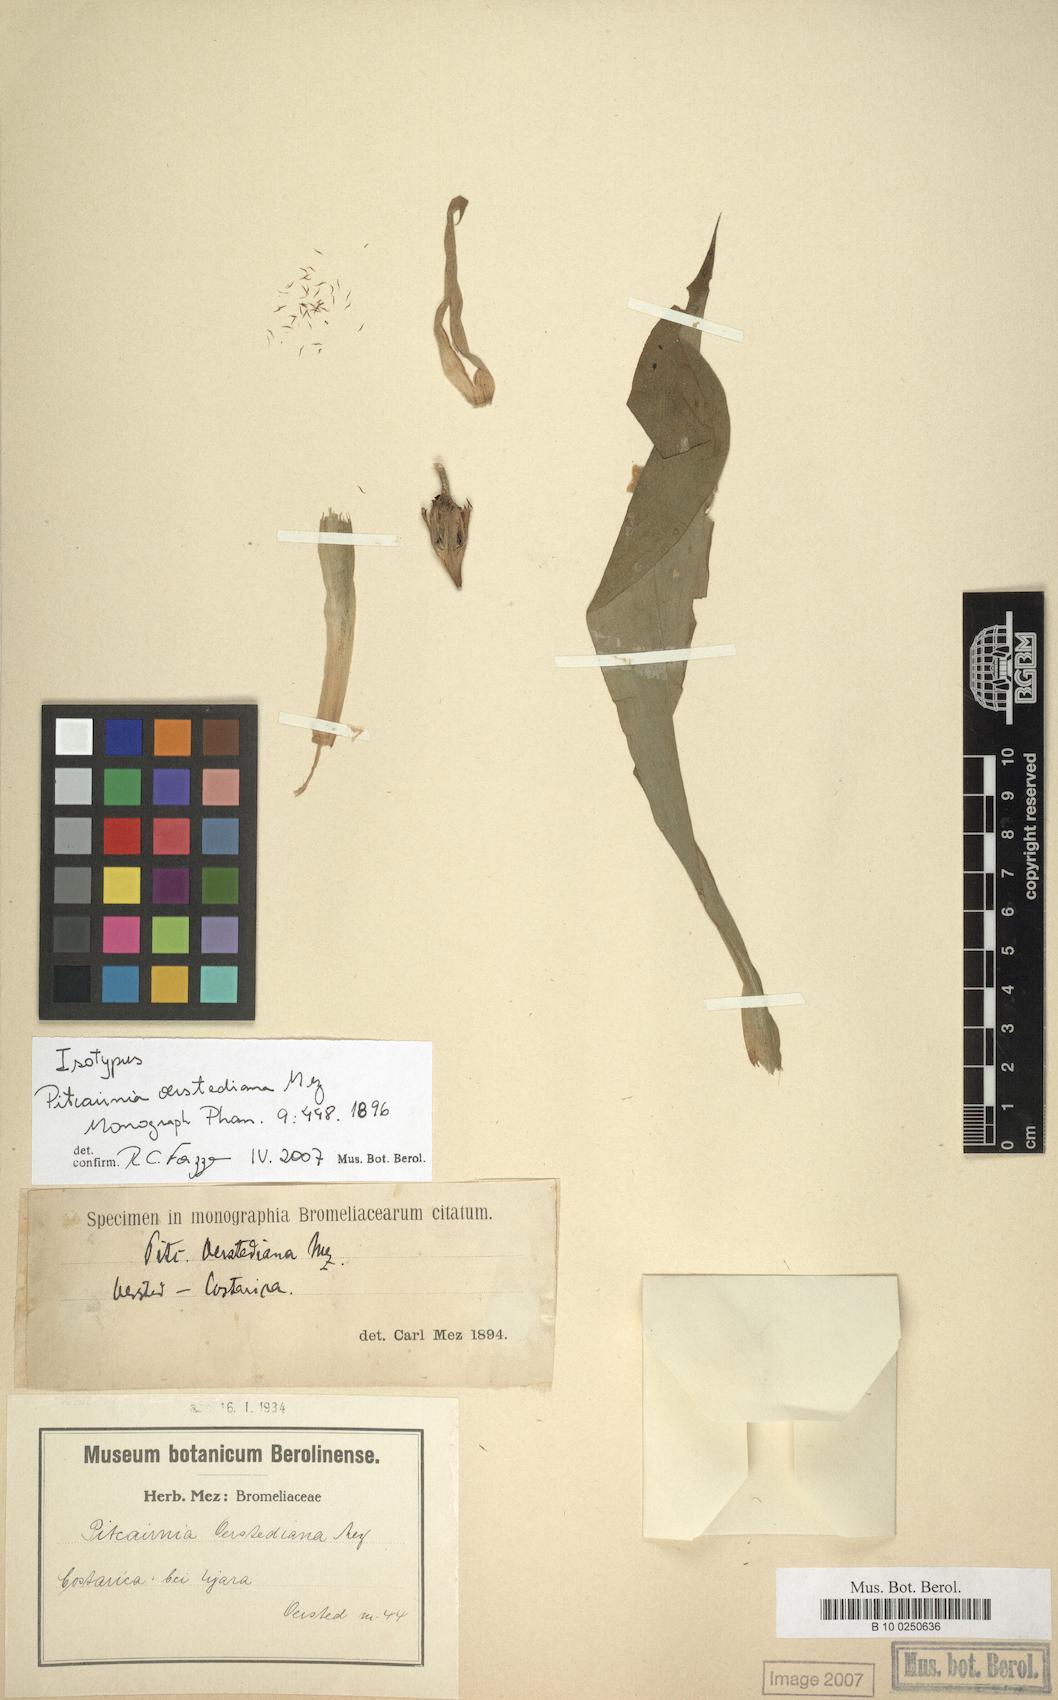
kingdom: Plantae
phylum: Tracheophyta
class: Liliopsida
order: Poales
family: Bromeliaceae
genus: Pitcairnia
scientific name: Pitcairnia maidifolia
